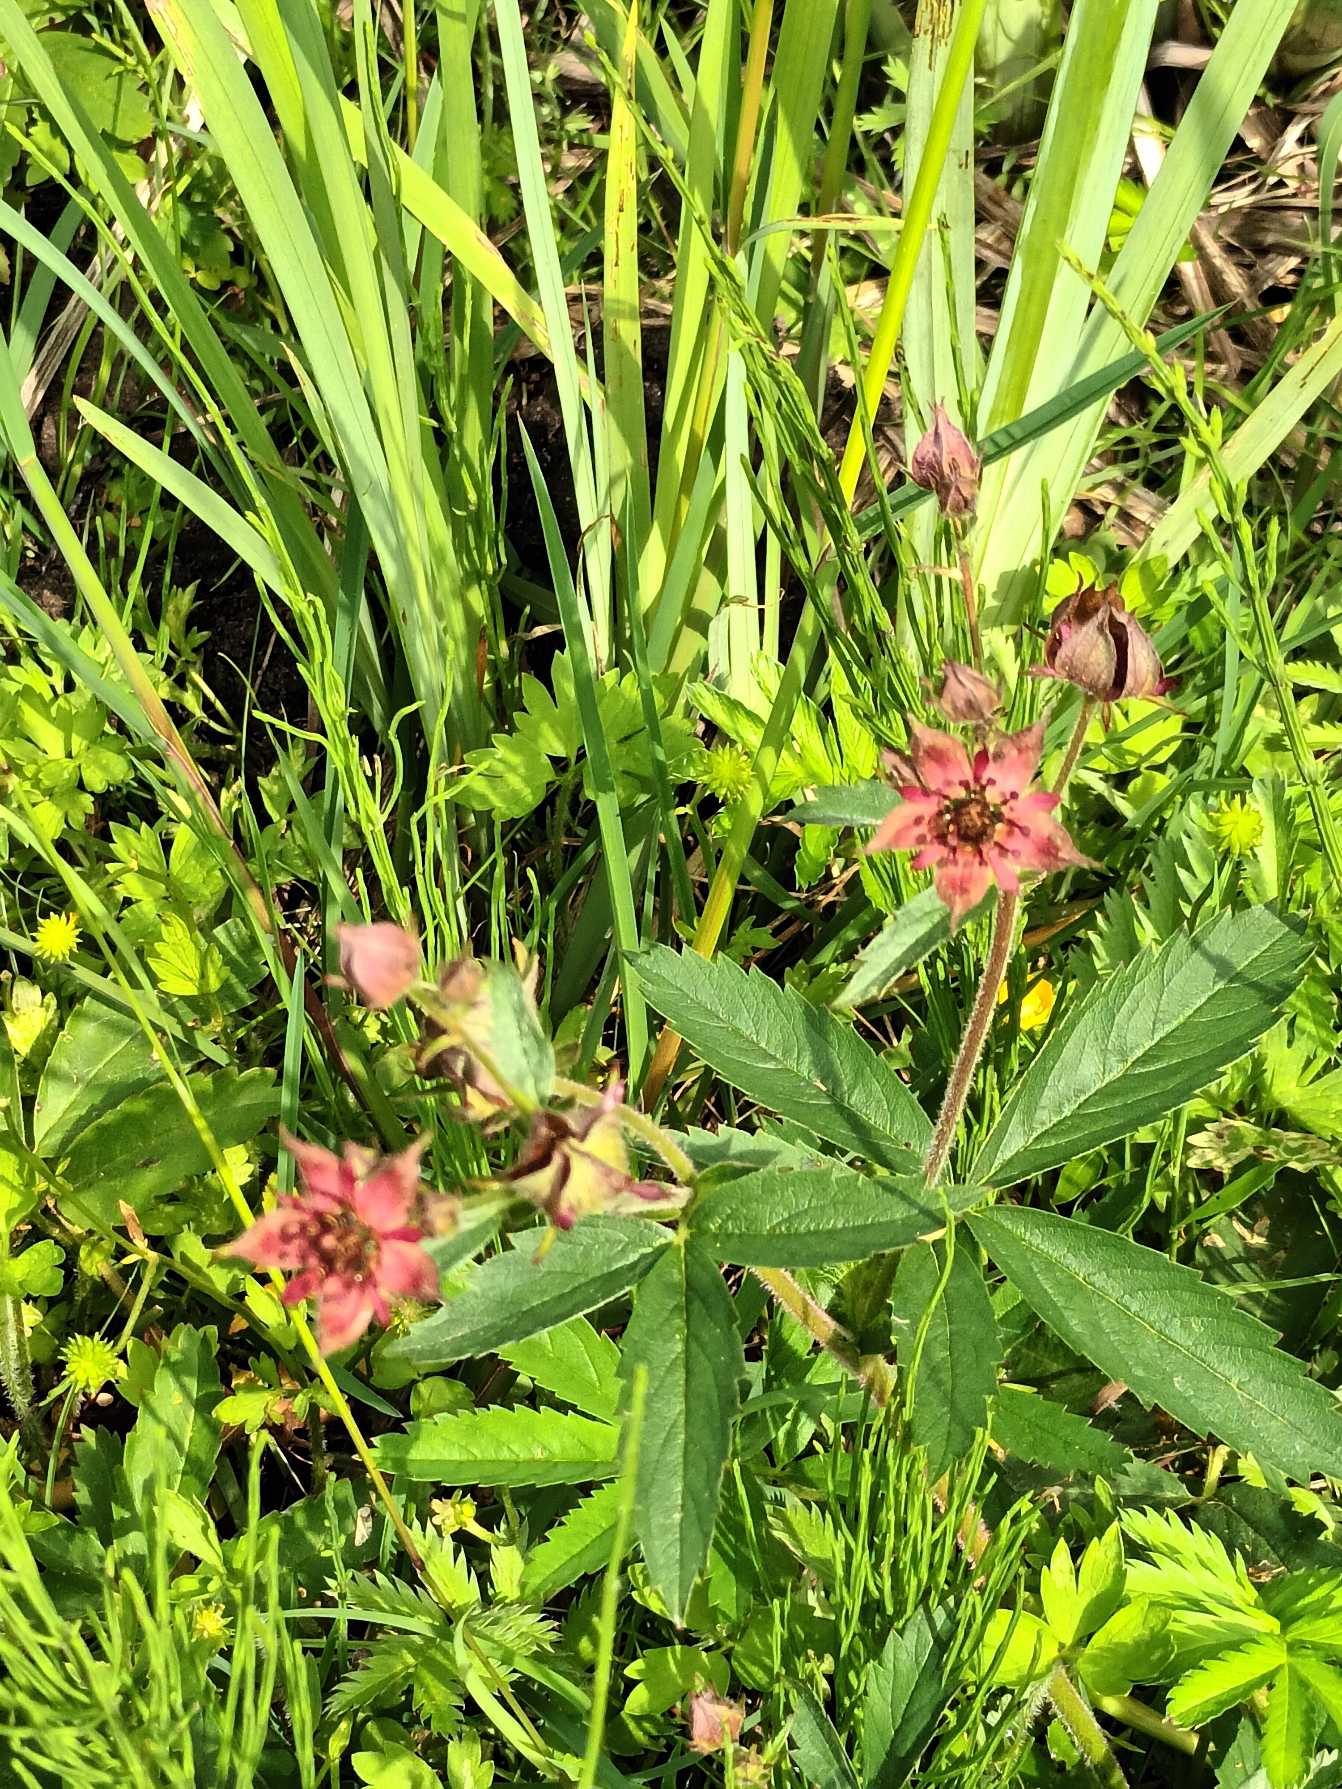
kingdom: Plantae
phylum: Tracheophyta
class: Magnoliopsida
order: Rosales
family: Rosaceae
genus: Comarum
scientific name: Comarum palustre
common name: Kragefod
